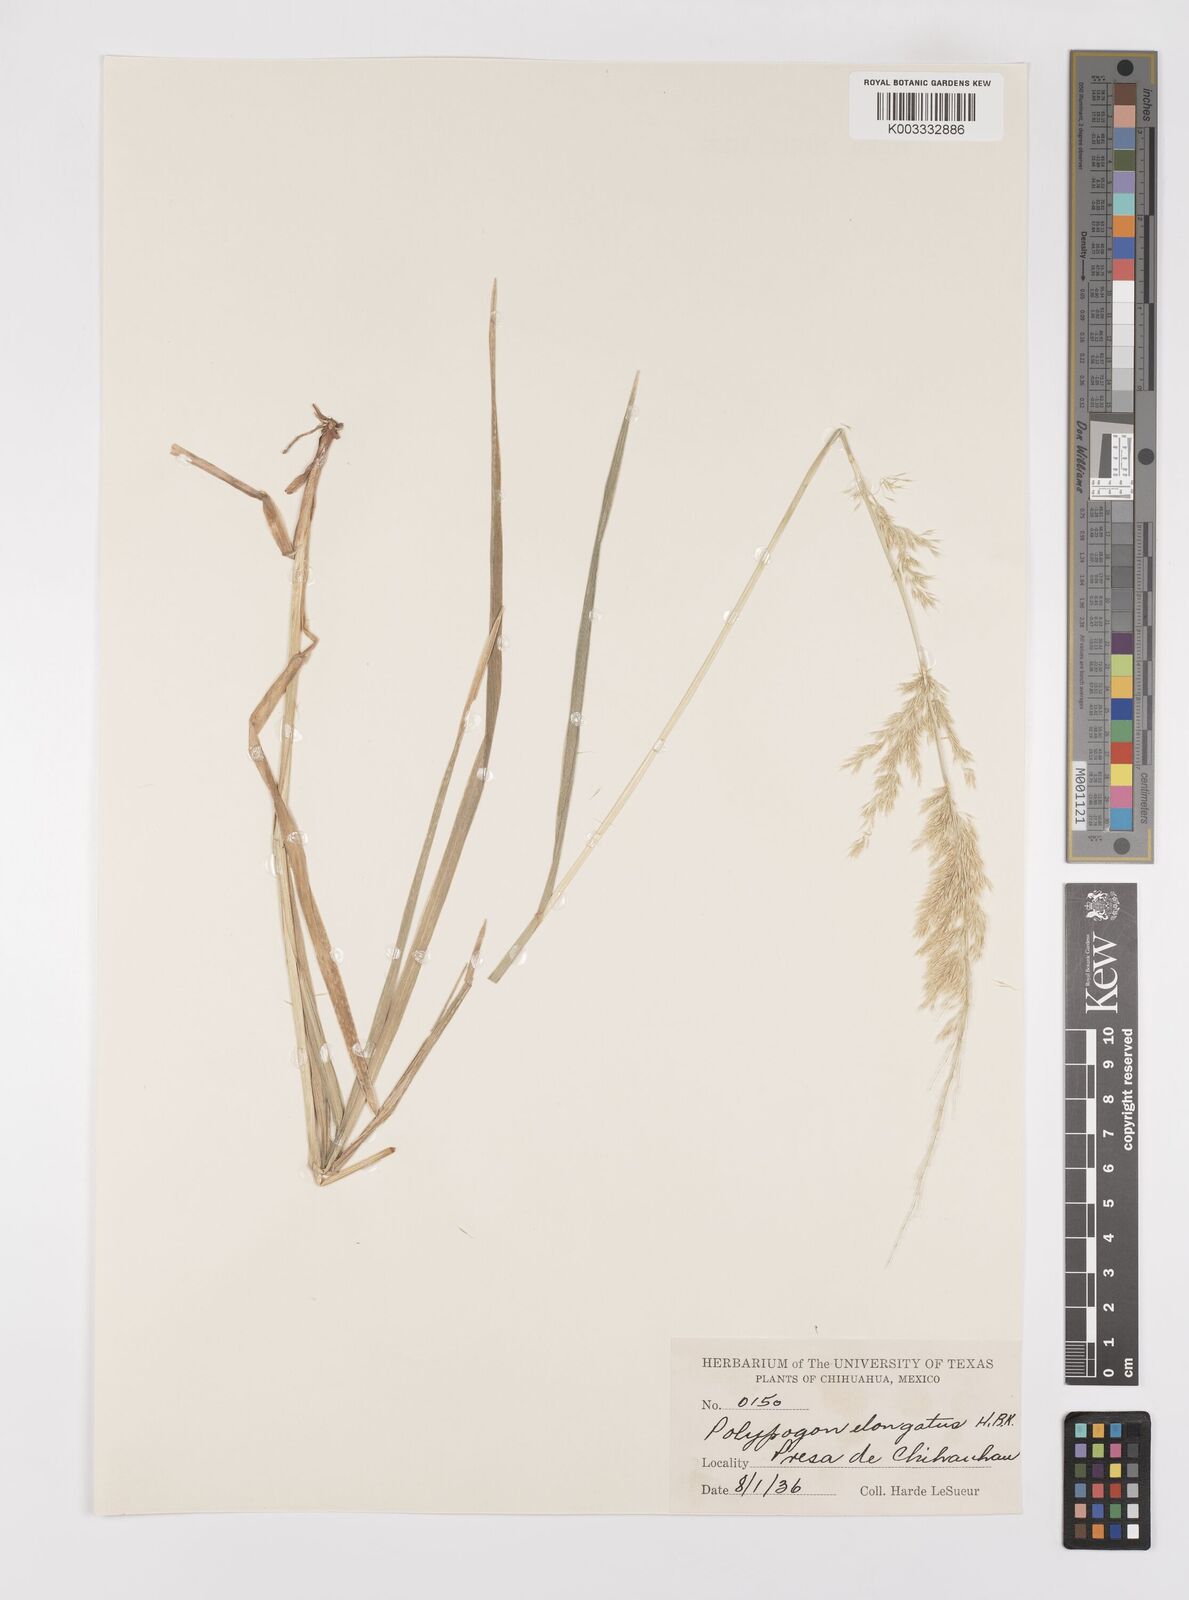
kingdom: Plantae
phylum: Tracheophyta
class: Liliopsida
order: Poales
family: Poaceae
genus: Polypogon
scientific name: Polypogon elongatus
